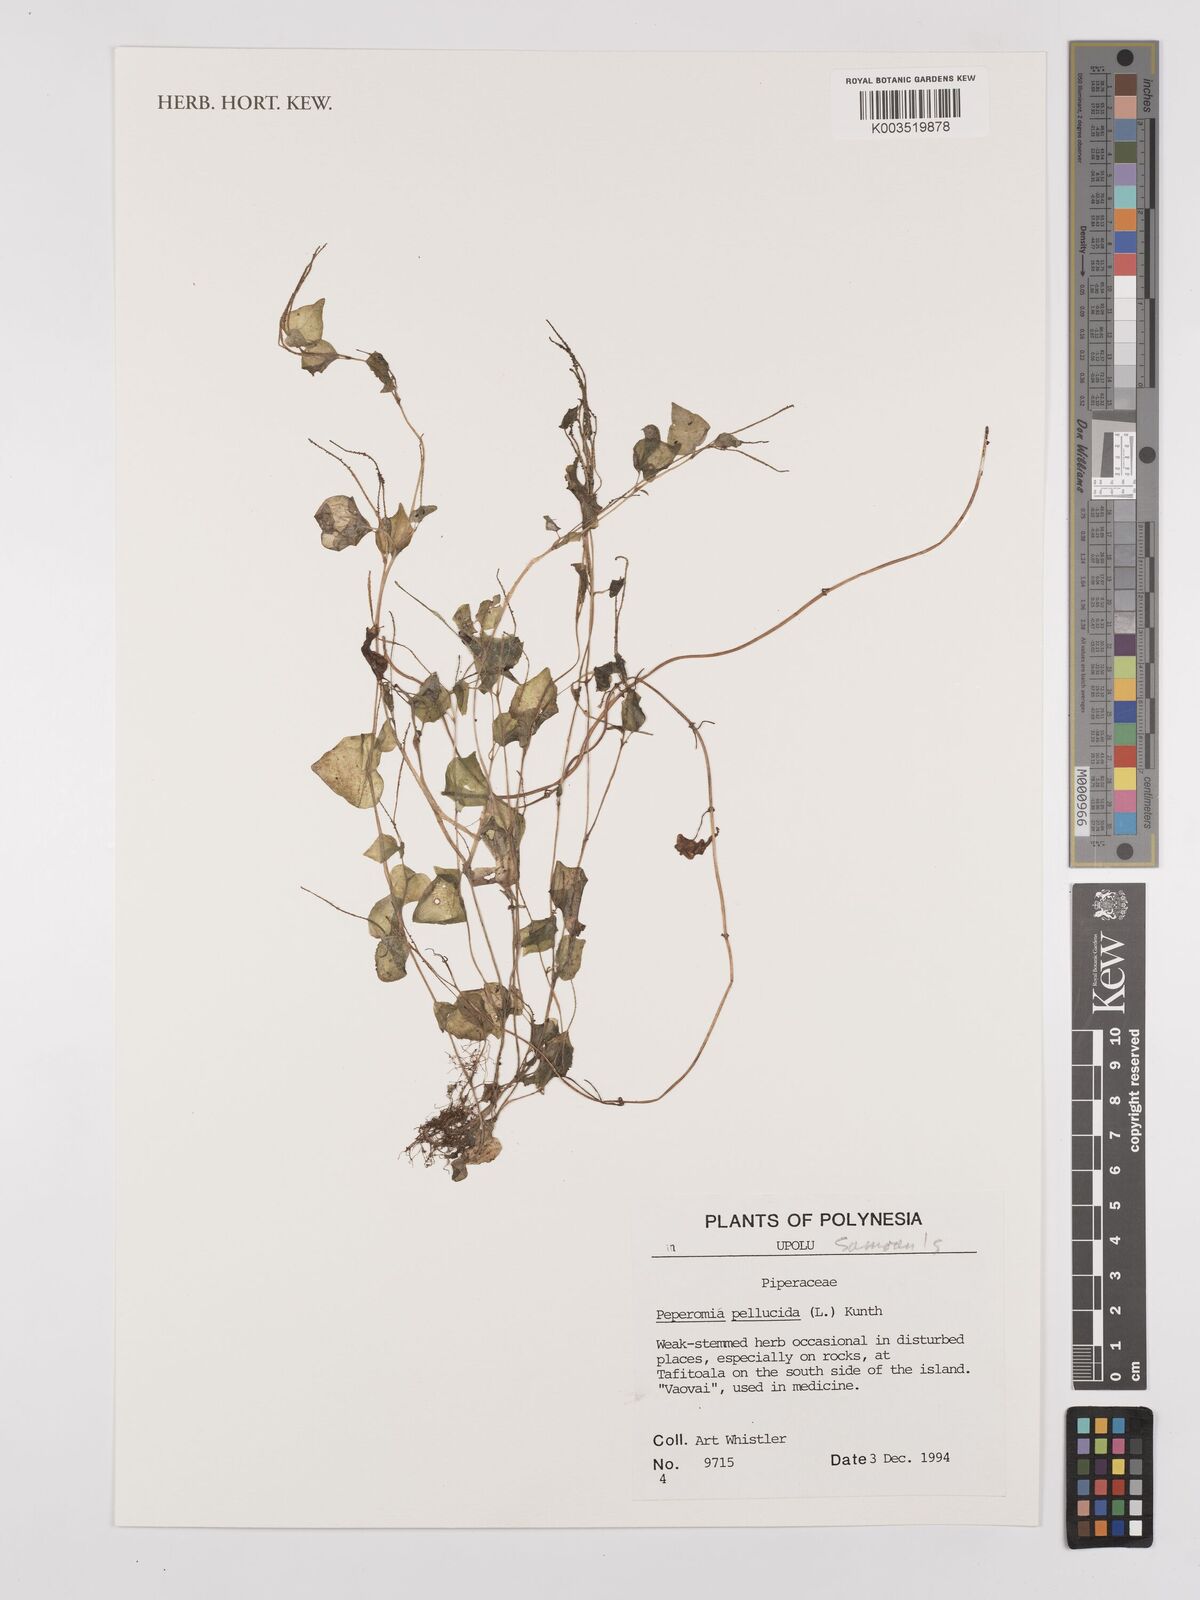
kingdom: Plantae
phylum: Tracheophyta
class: Magnoliopsida
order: Piperales
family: Piperaceae
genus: Peperomia
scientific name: Peperomia pellucida
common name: Man to man
